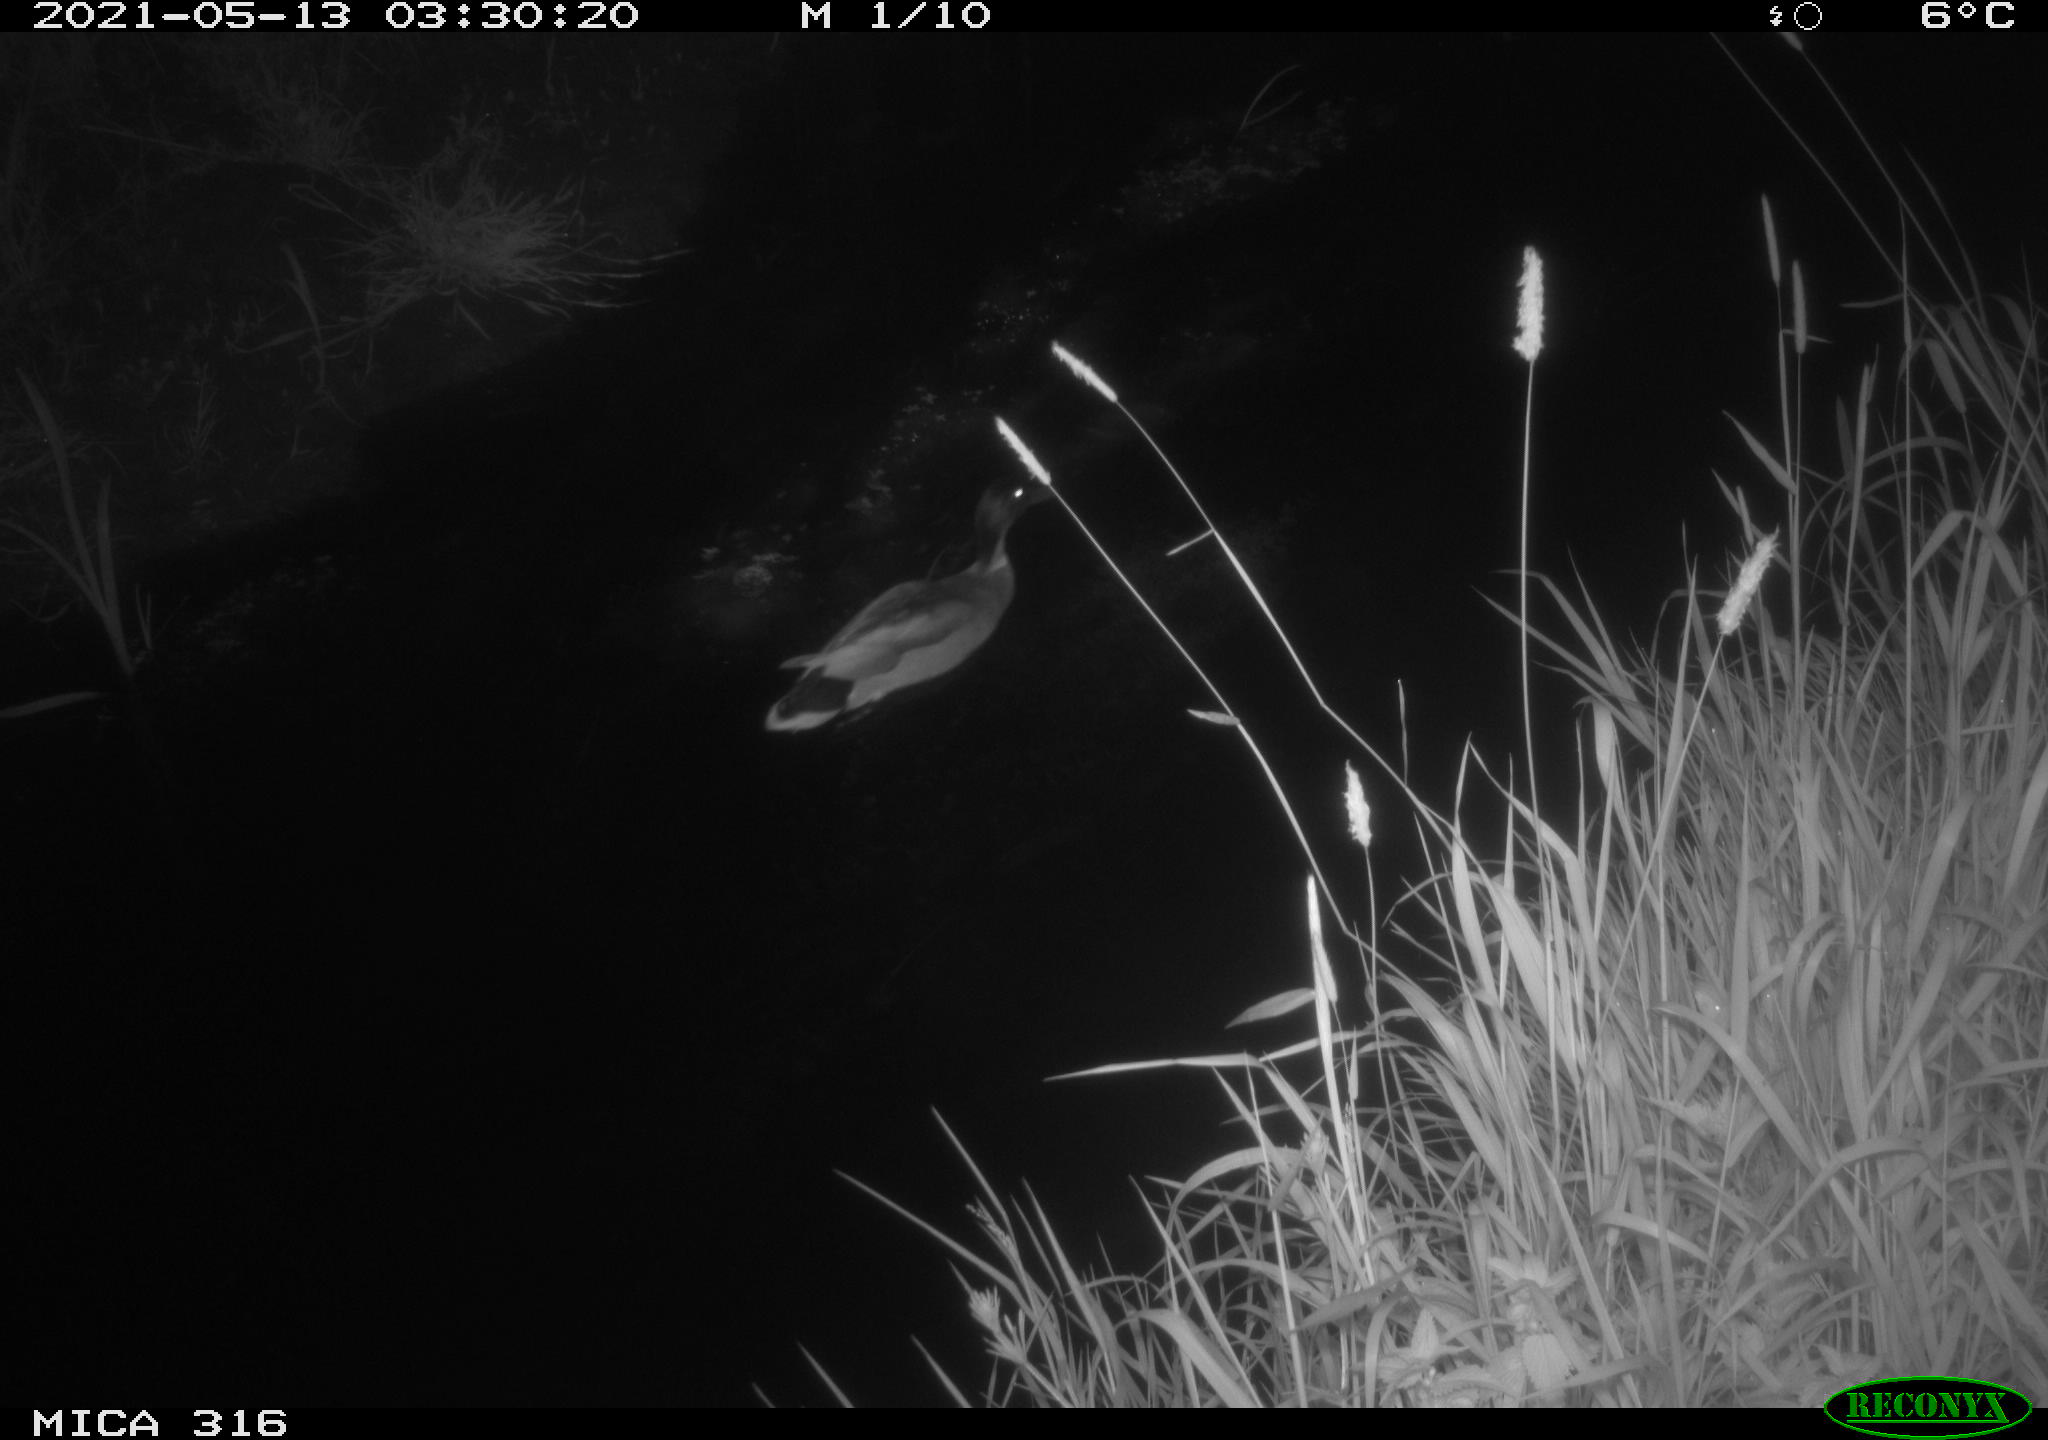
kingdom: Animalia
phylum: Chordata
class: Aves
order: Anseriformes
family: Anatidae
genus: Anas
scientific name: Anas platyrhynchos
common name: Mallard
